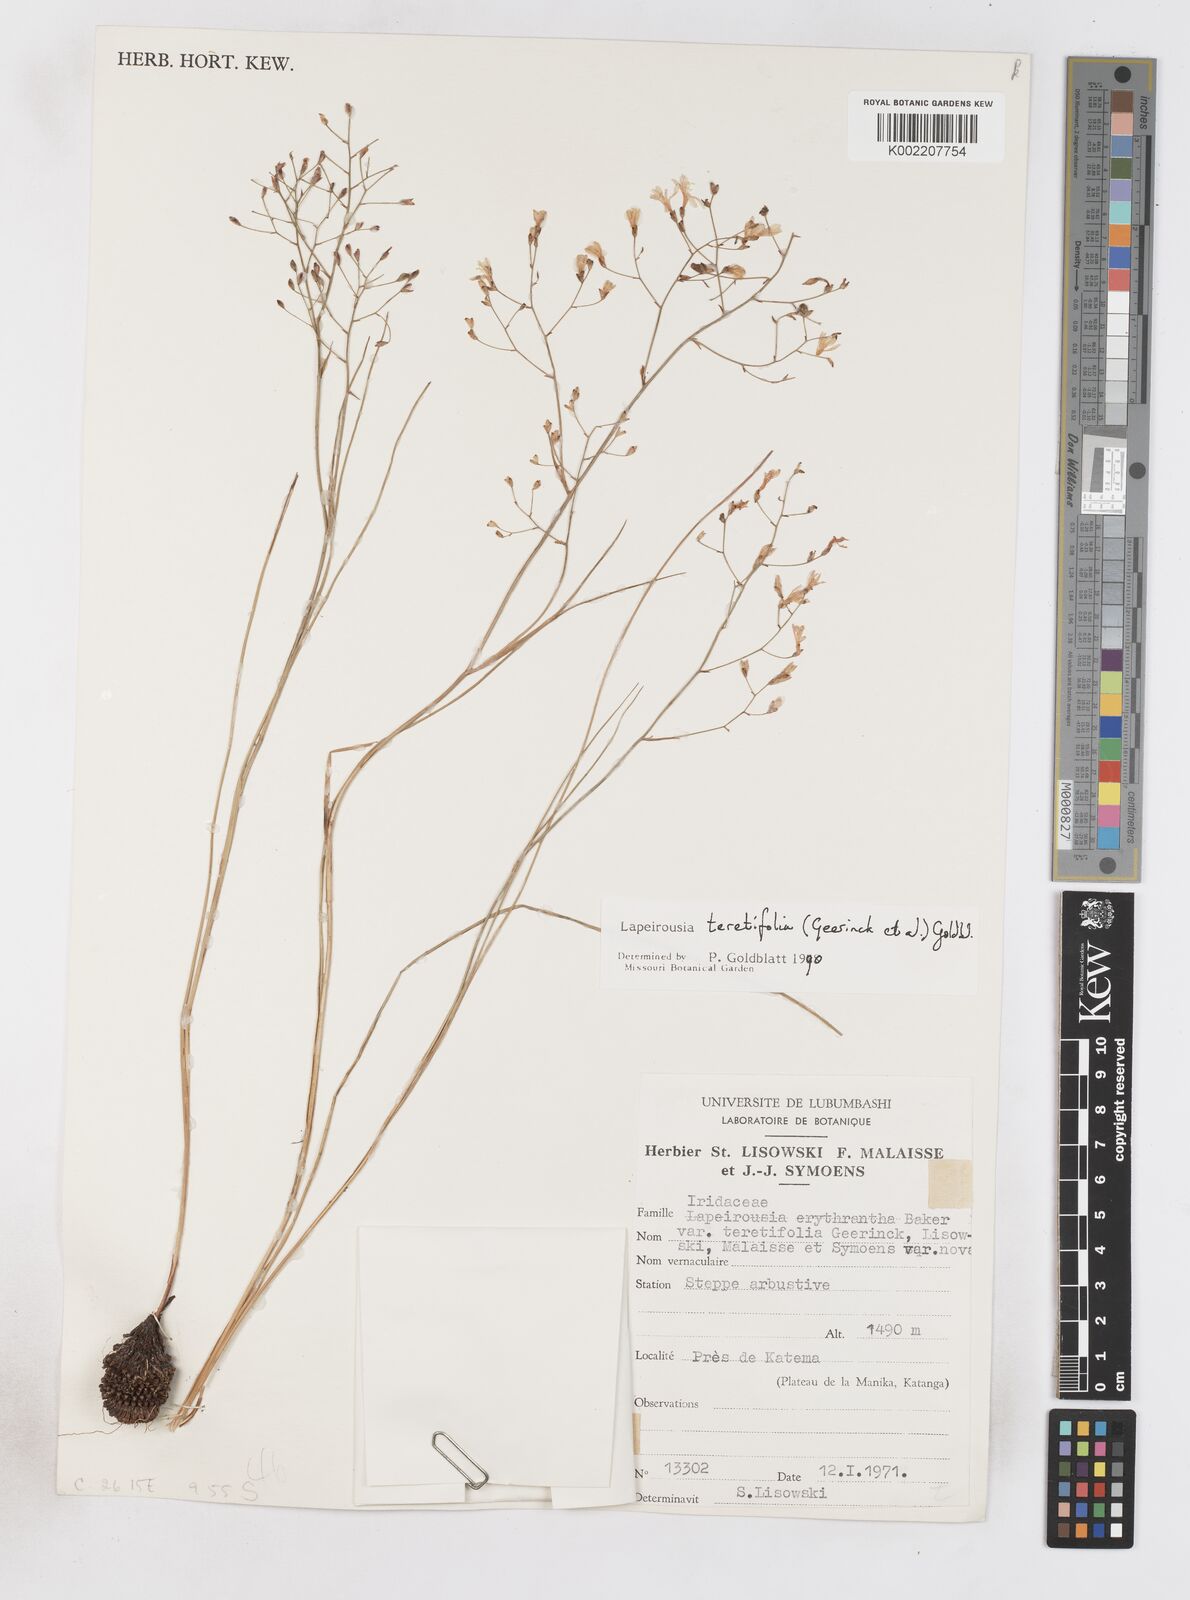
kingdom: Plantae
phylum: Tracheophyta
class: Liliopsida
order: Asparagales
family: Iridaceae
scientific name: Iridaceae
